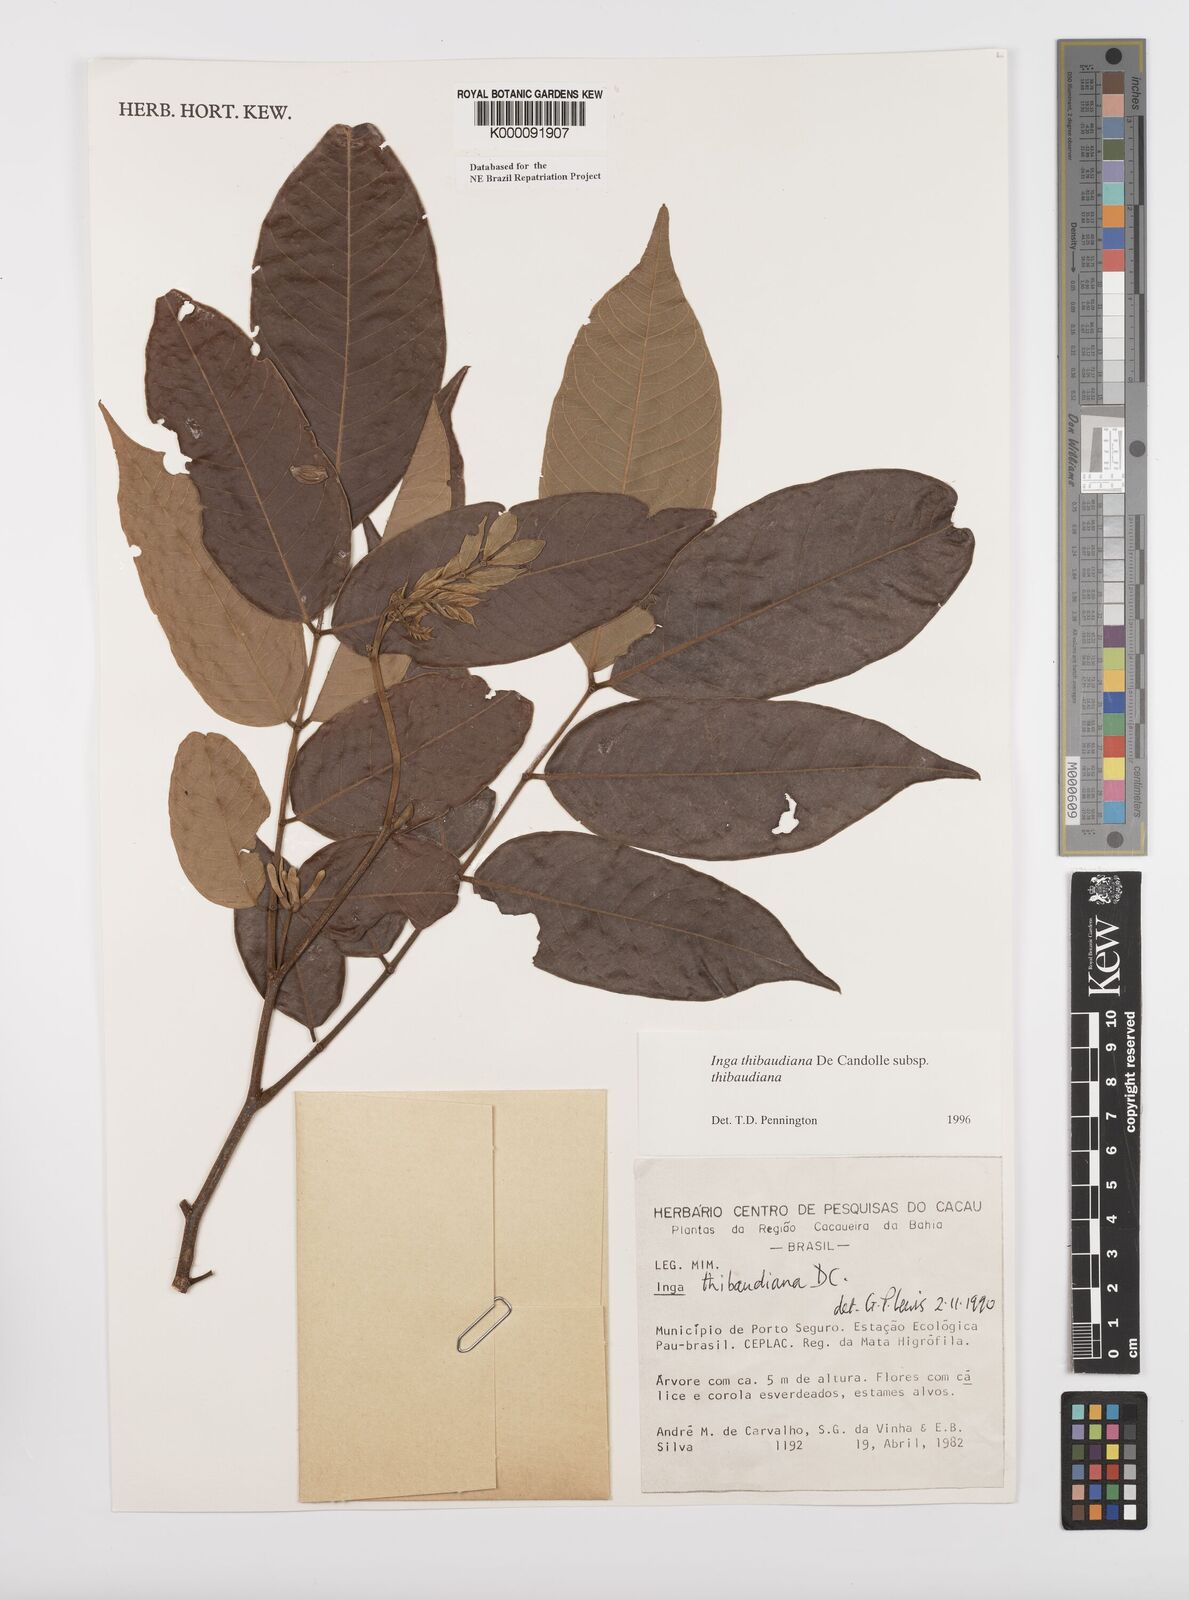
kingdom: Plantae
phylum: Tracheophyta
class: Magnoliopsida
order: Fabales
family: Fabaceae
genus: Inga
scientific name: Inga thibaudiana
